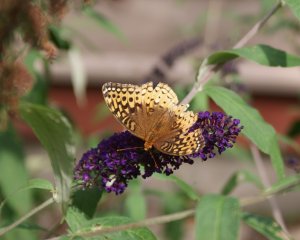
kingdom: Animalia
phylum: Arthropoda
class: Insecta
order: Lepidoptera
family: Nymphalidae
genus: Speyeria
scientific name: Speyeria cybele
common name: Great Spangled Fritillary
